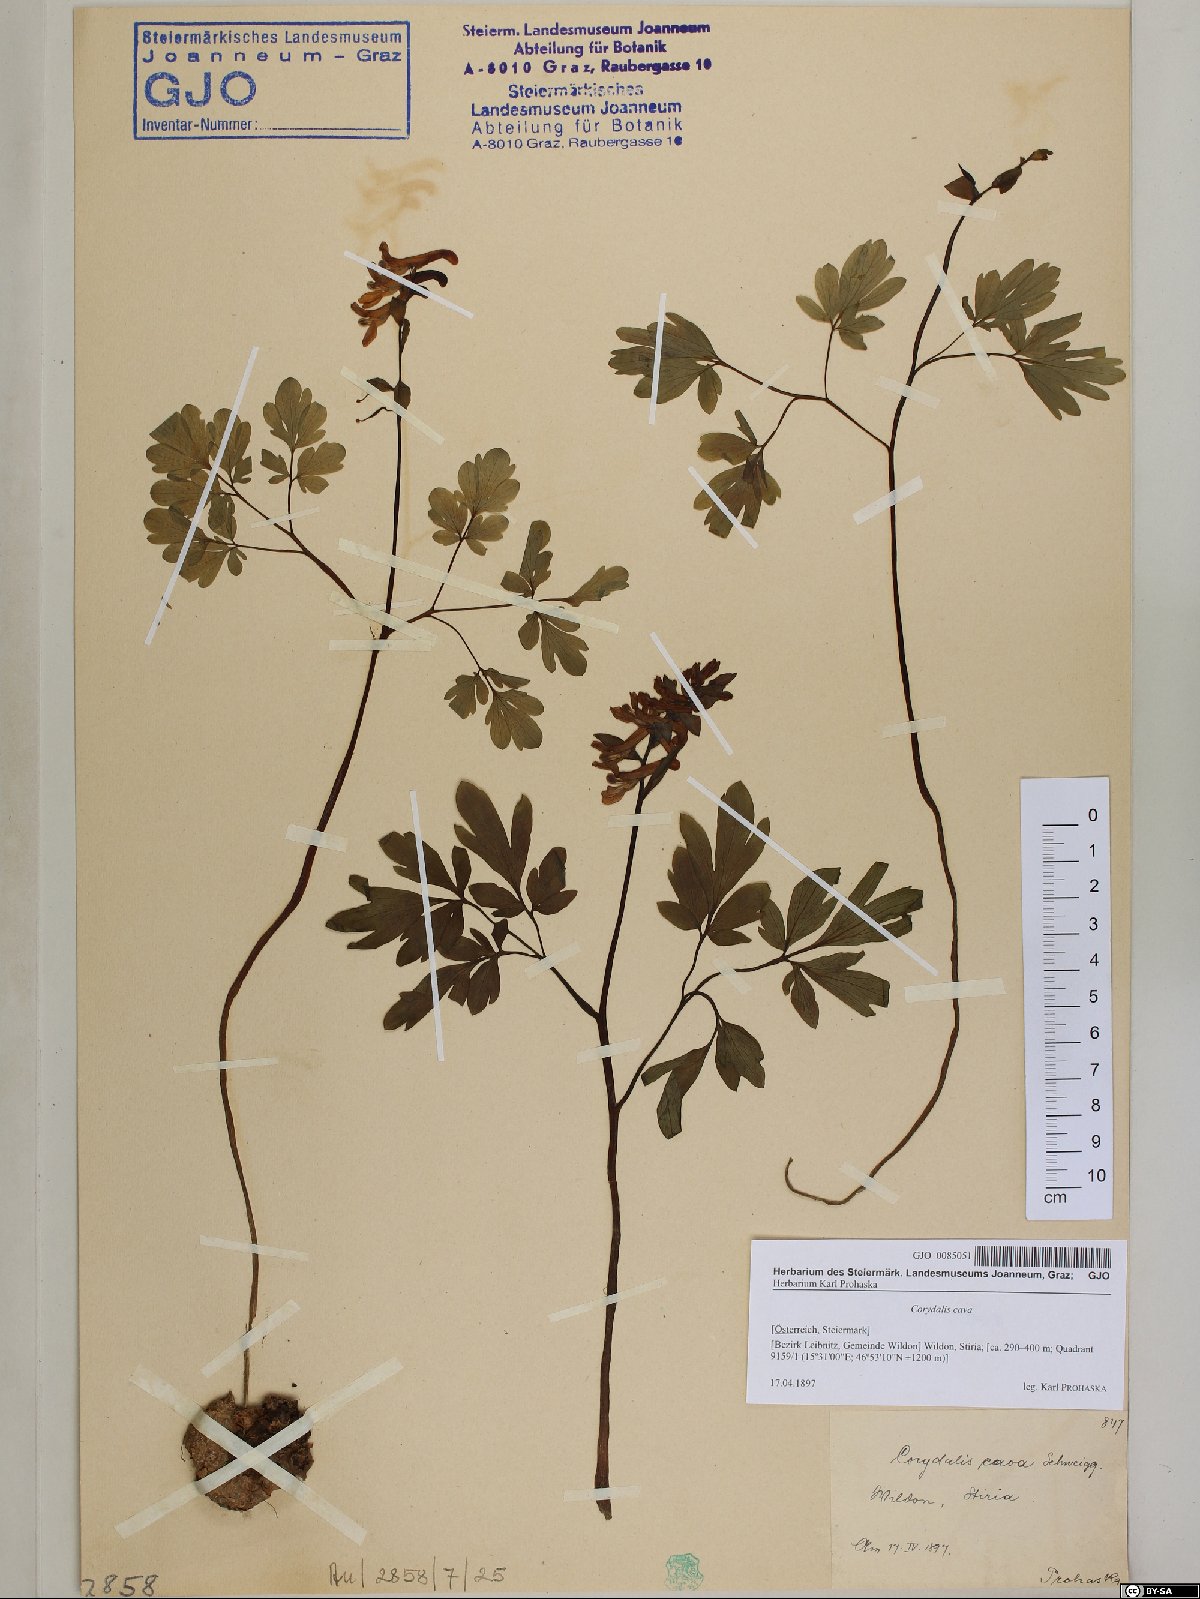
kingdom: Plantae
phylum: Tracheophyta
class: Magnoliopsida
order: Ranunculales
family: Papaveraceae
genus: Corydalis
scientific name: Corydalis cava
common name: Hollowroot
